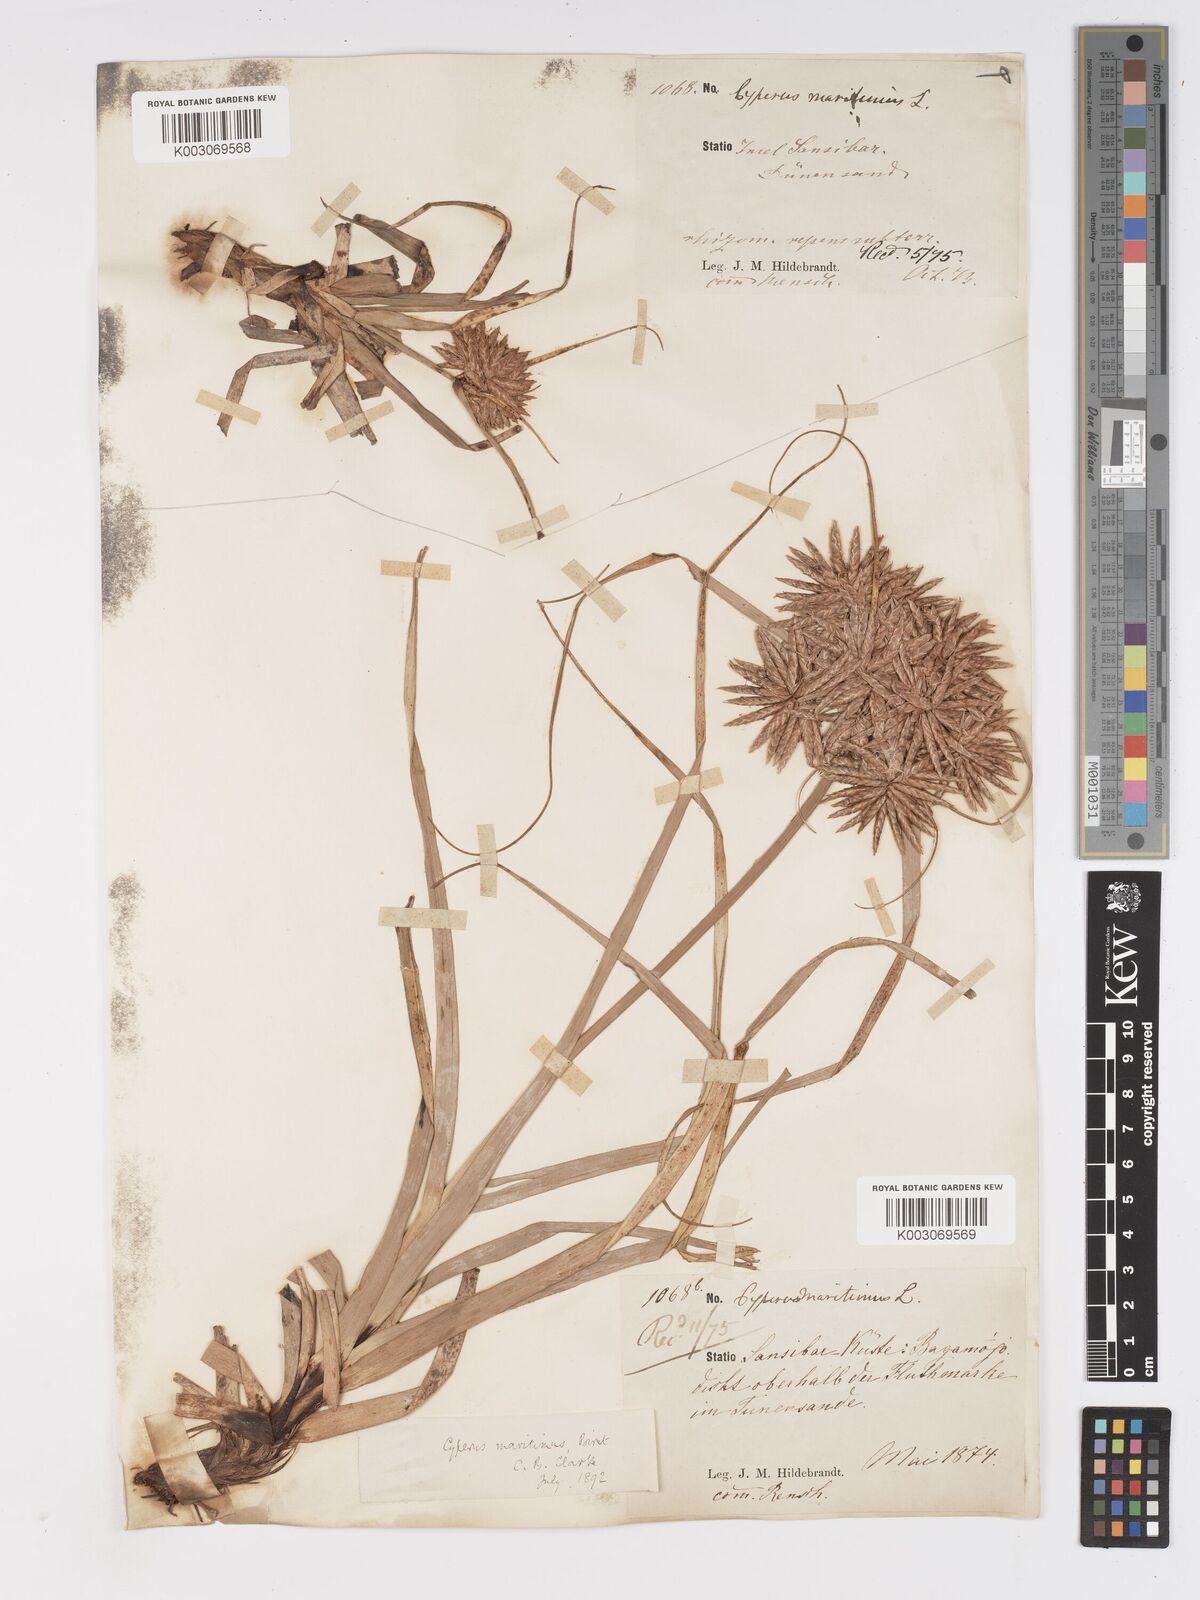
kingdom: Plantae
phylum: Tracheophyta
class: Liliopsida
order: Poales
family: Cyperaceae
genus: Cyperus
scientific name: Cyperus crassipes
